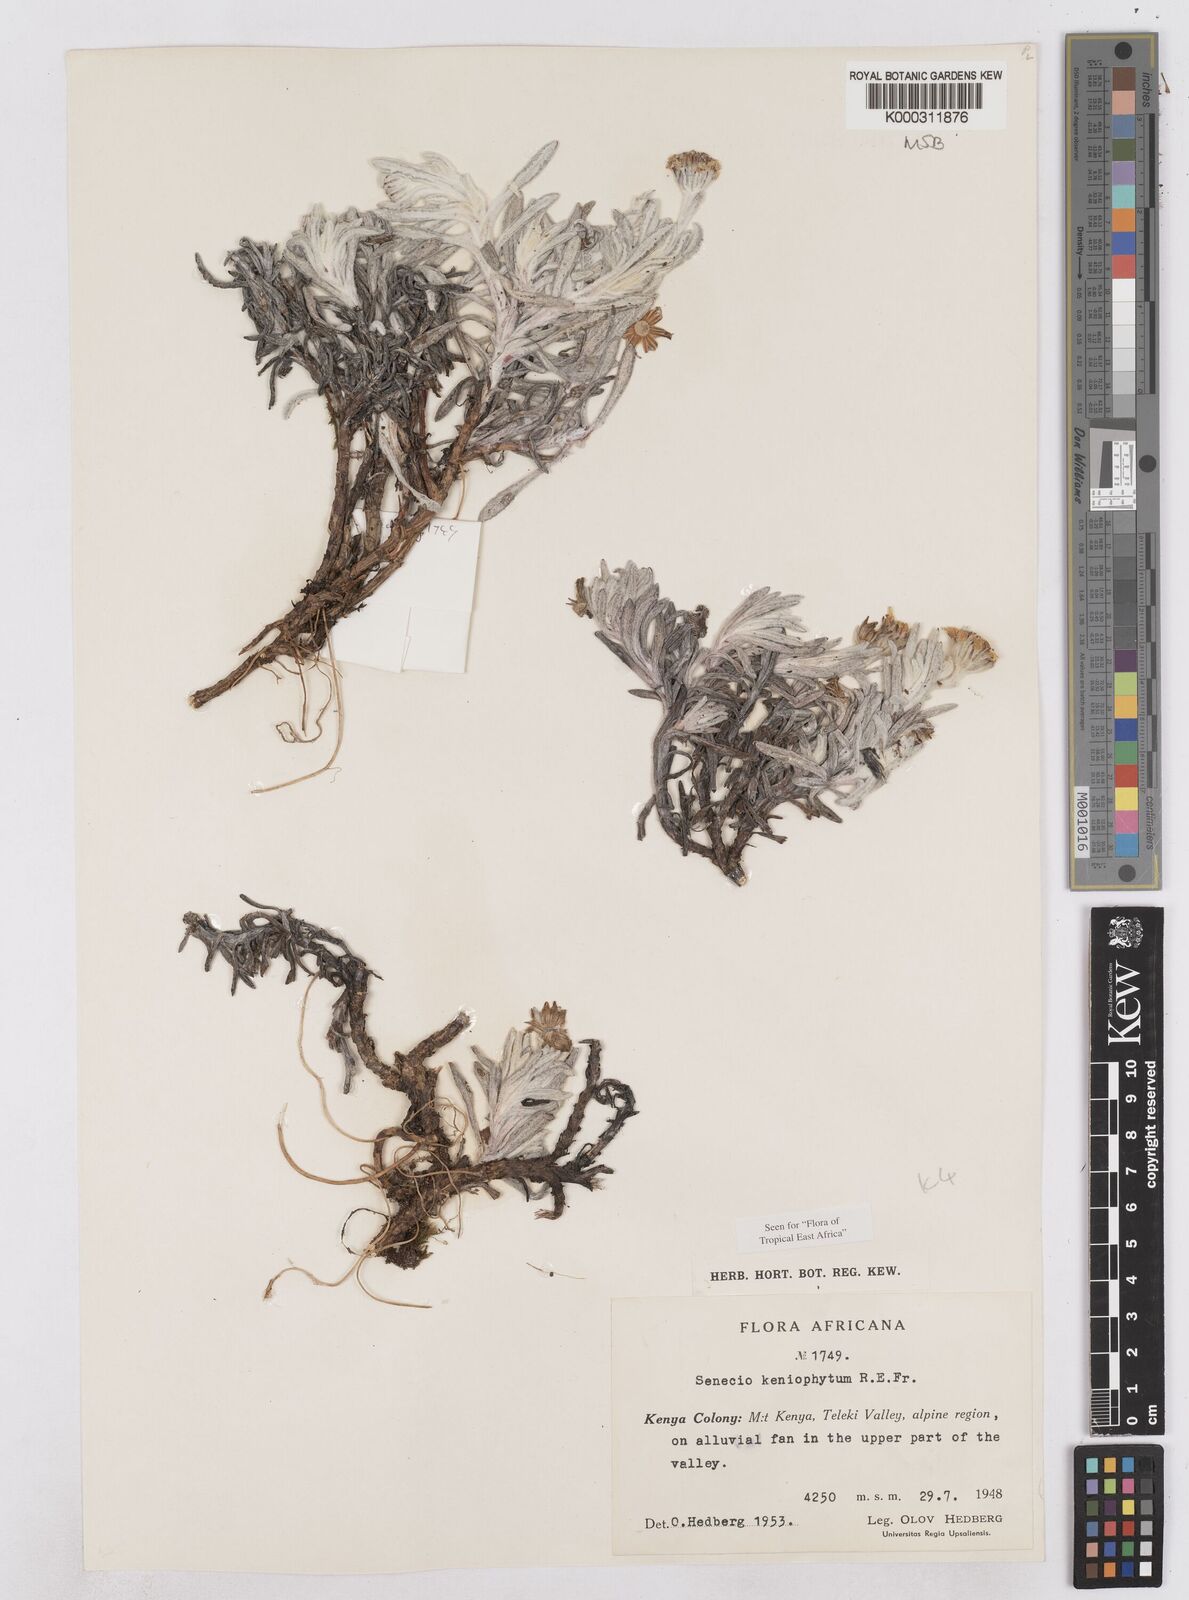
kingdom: Plantae
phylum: Tracheophyta
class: Magnoliopsida
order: Asterales
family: Asteraceae
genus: Senecio
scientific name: Senecio keniophytum
